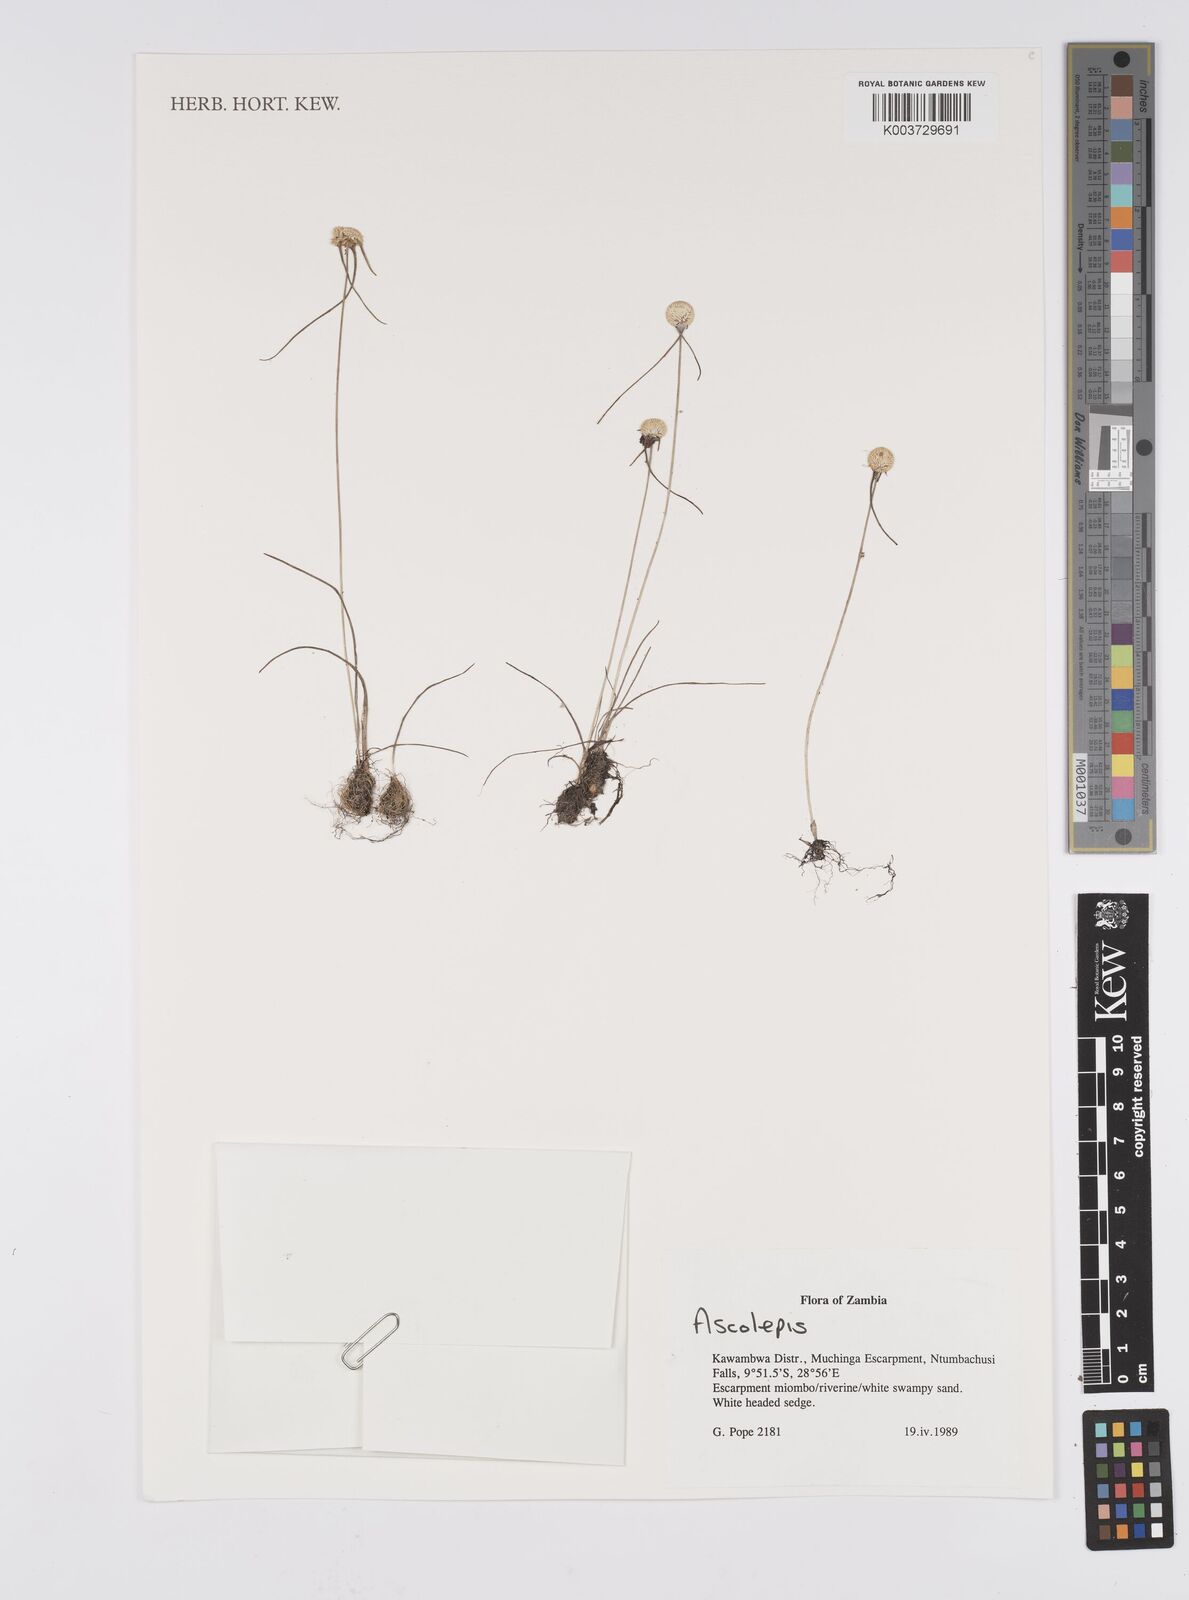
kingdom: Plantae
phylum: Tracheophyta
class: Liliopsida
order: Poales
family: Cyperaceae
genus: Cyperus
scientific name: Cyperus
